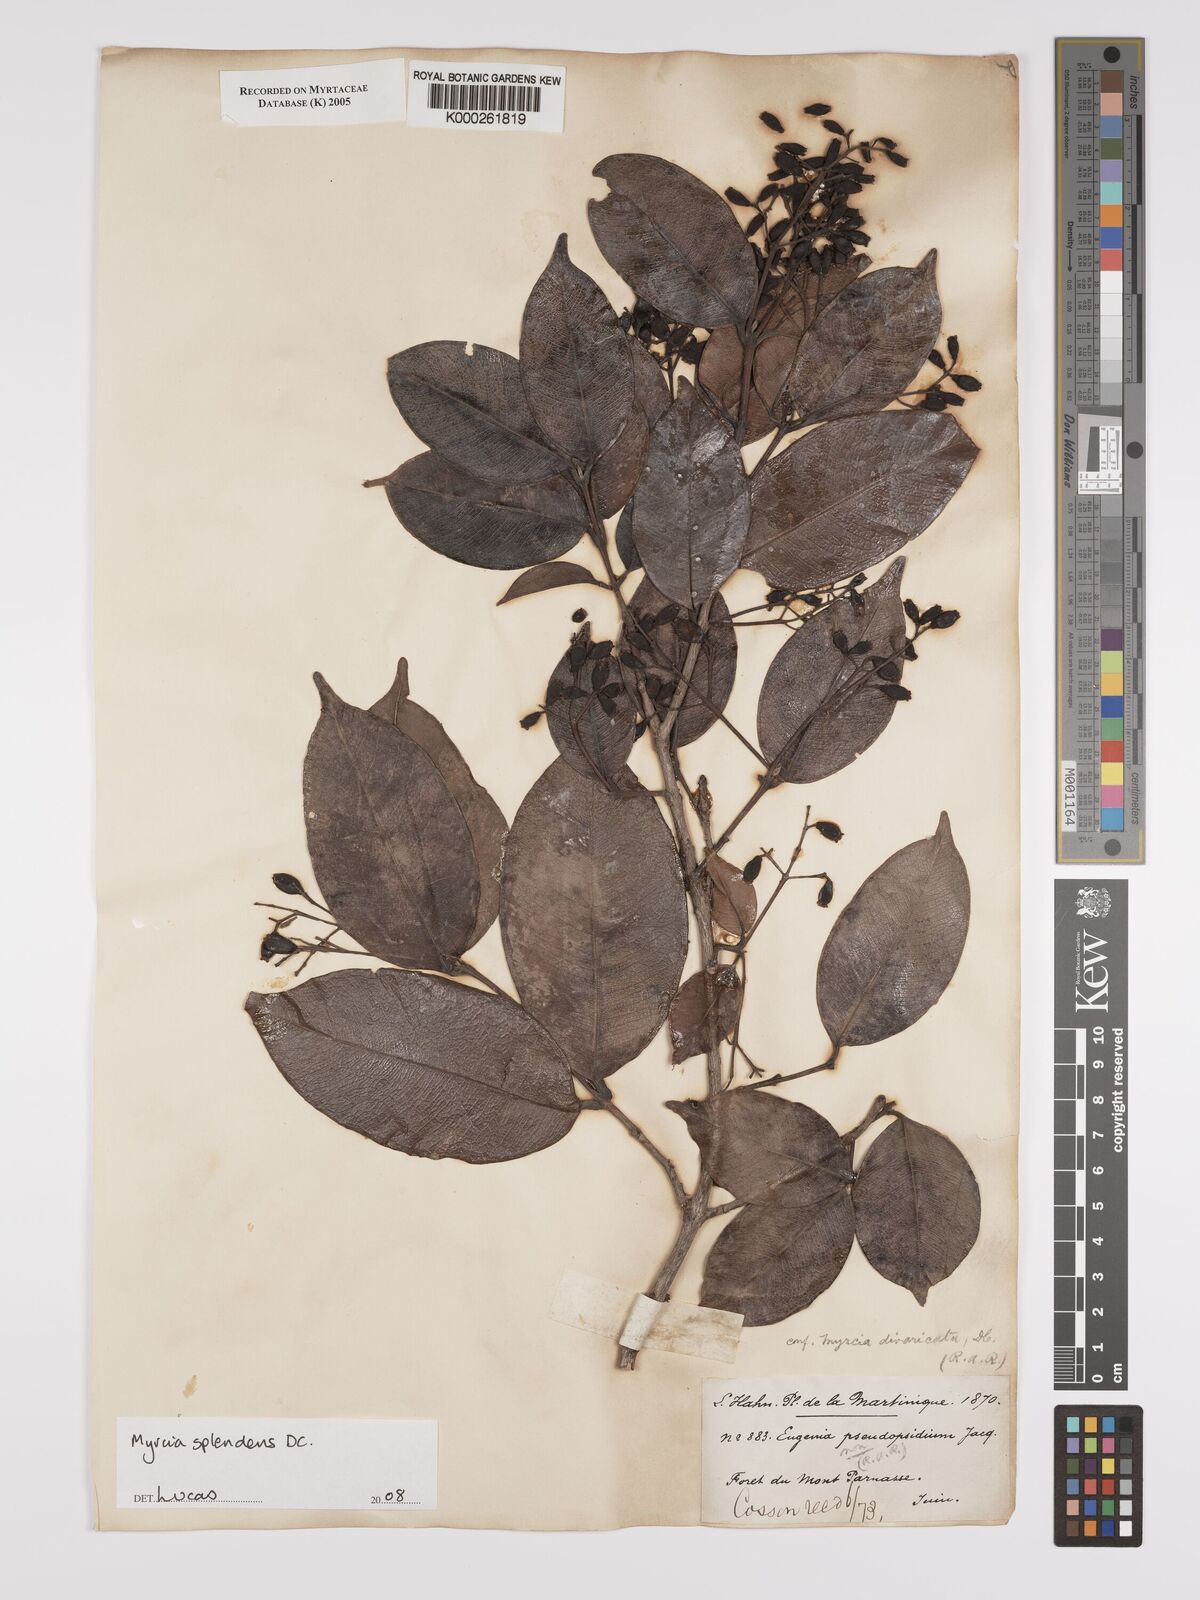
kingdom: Plantae
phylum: Tracheophyta
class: Magnoliopsida
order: Myrtales
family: Myrtaceae
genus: Myrcia
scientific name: Myrcia splendens
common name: Surinam cherry
